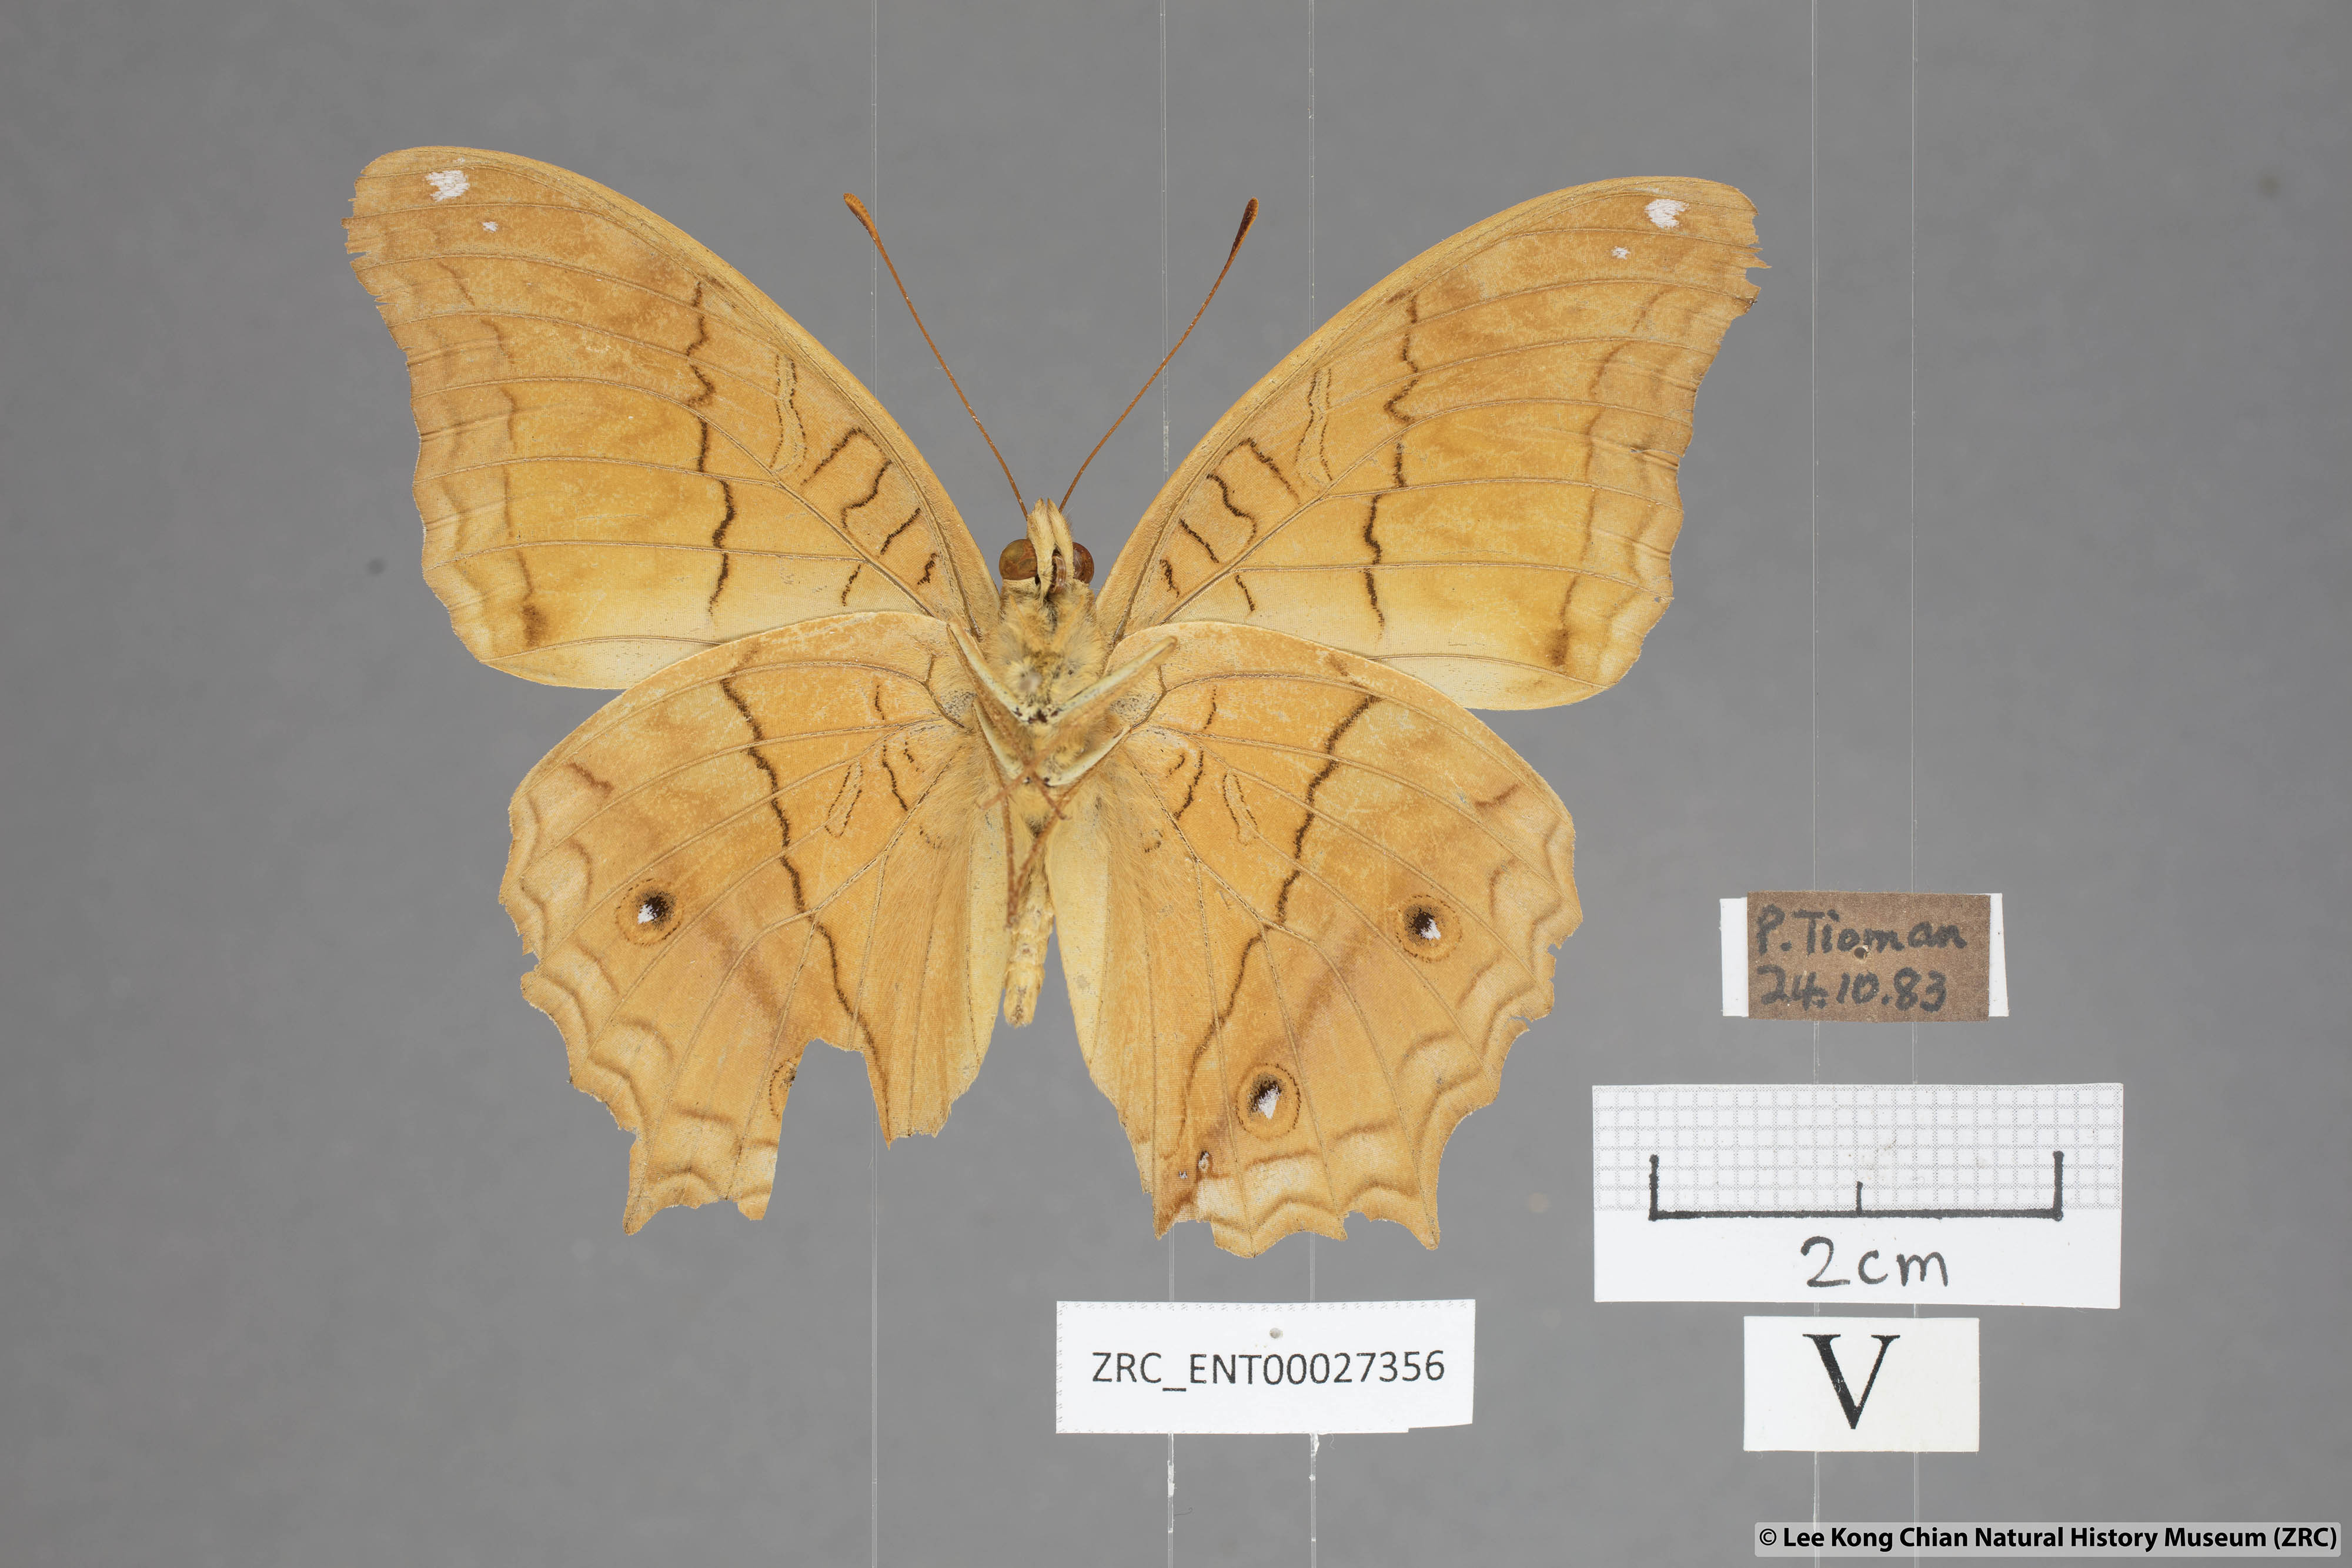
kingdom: Animalia
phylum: Arthropoda
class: Insecta
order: Lepidoptera
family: Nymphalidae
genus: Vindula
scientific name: Vindula deione
